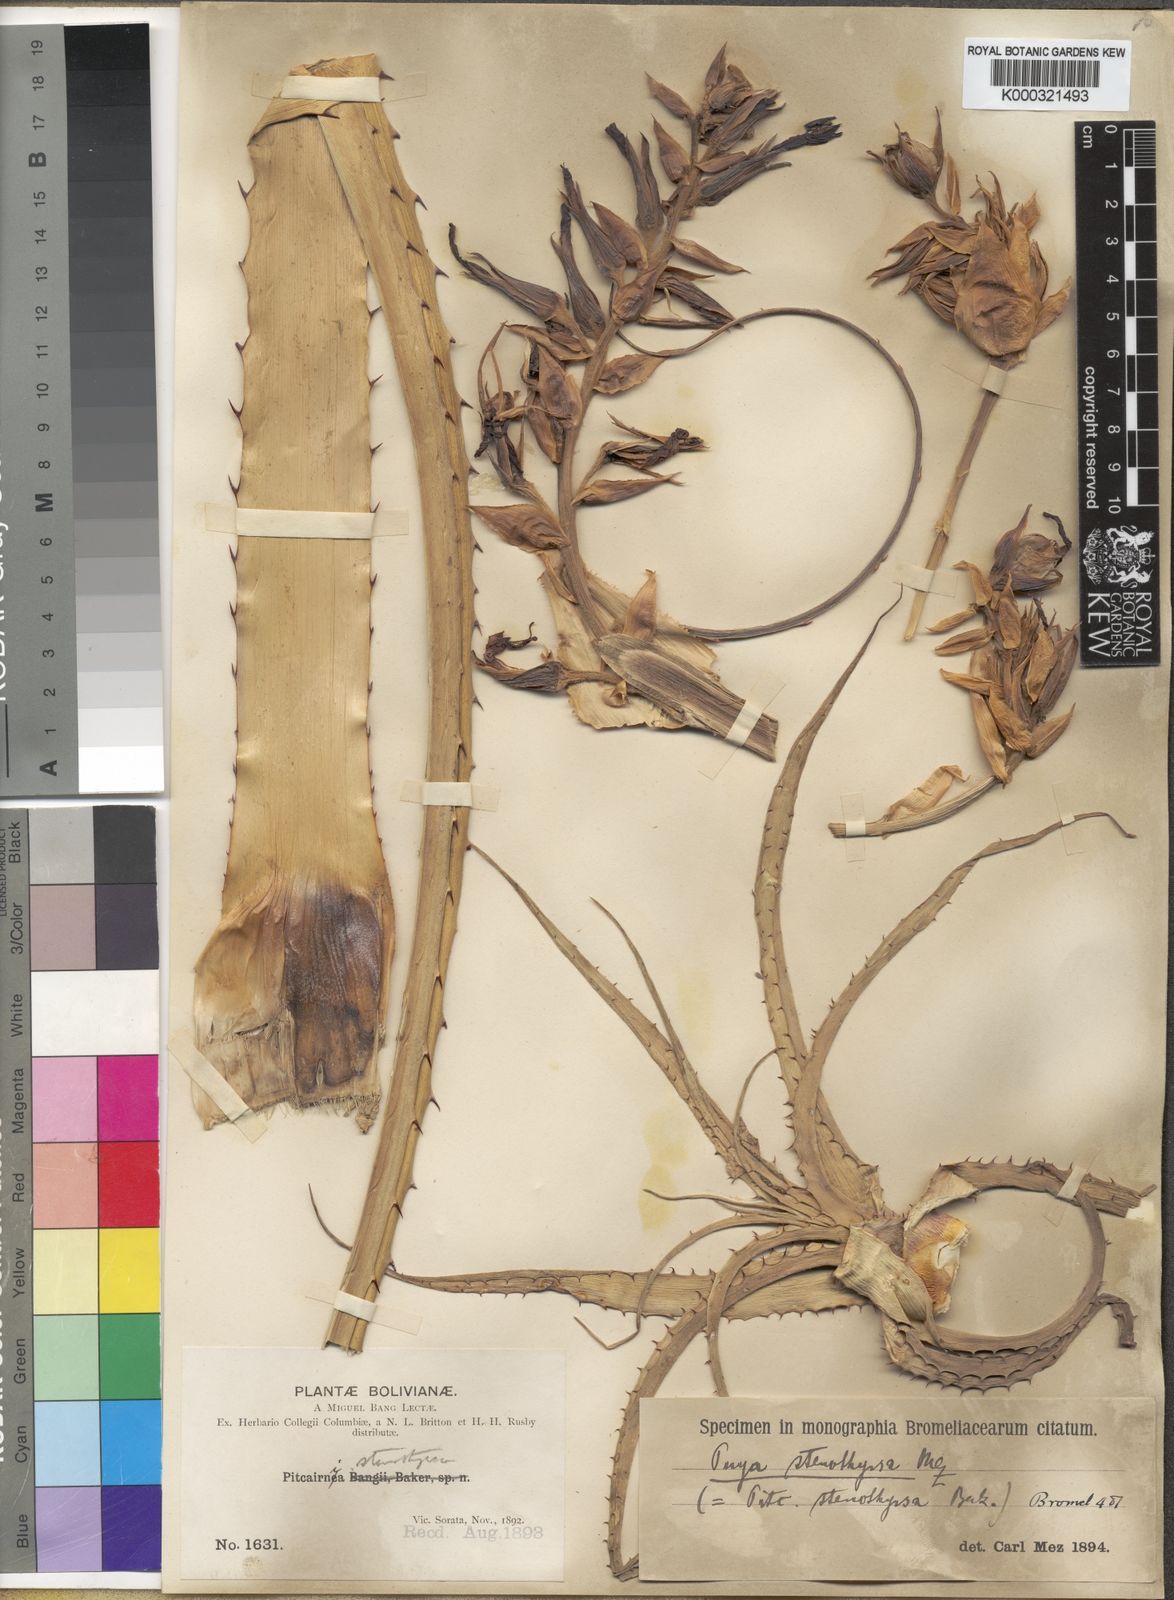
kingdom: Plantae
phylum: Tracheophyta
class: Liliopsida
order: Poales
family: Bromeliaceae
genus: Puya
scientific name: Puya stenothyrsa
